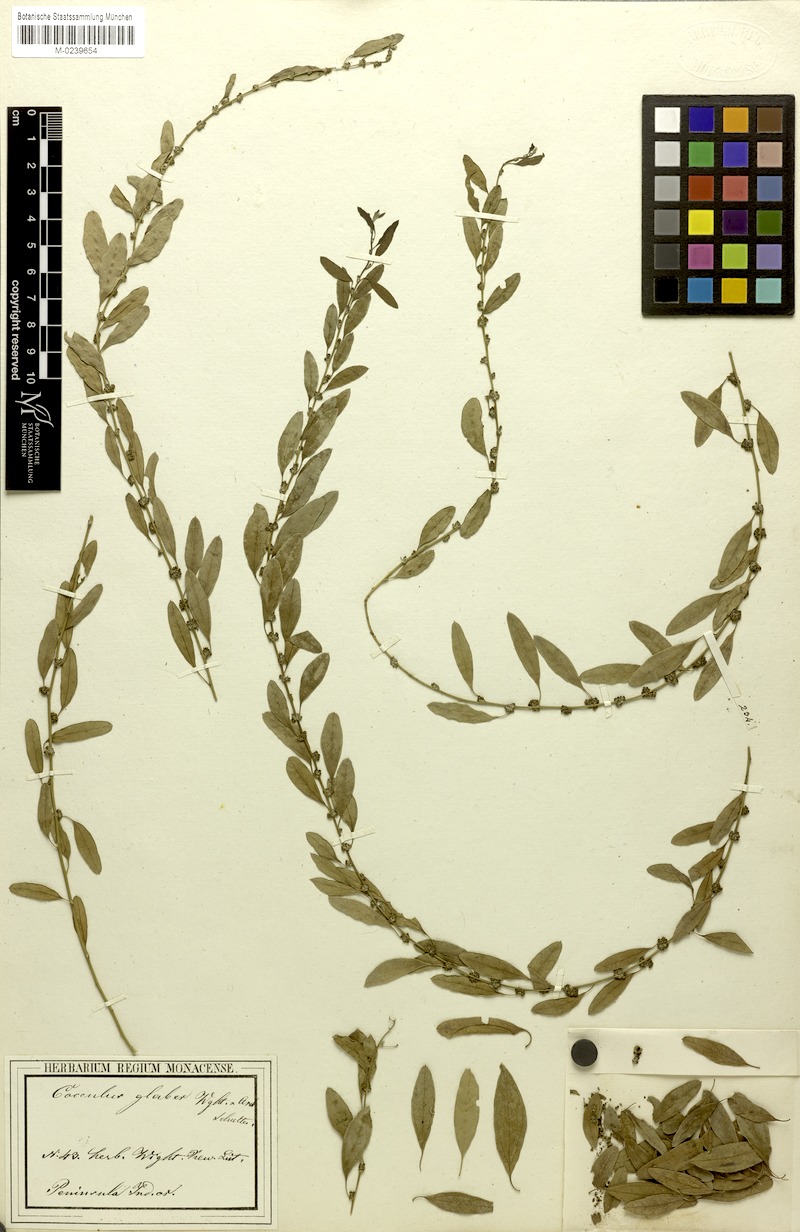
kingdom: Plantae
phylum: Tracheophyta
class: Magnoliopsida
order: Ranunculales
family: Menispermaceae
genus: Cocculus
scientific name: Cocculus pendulus
